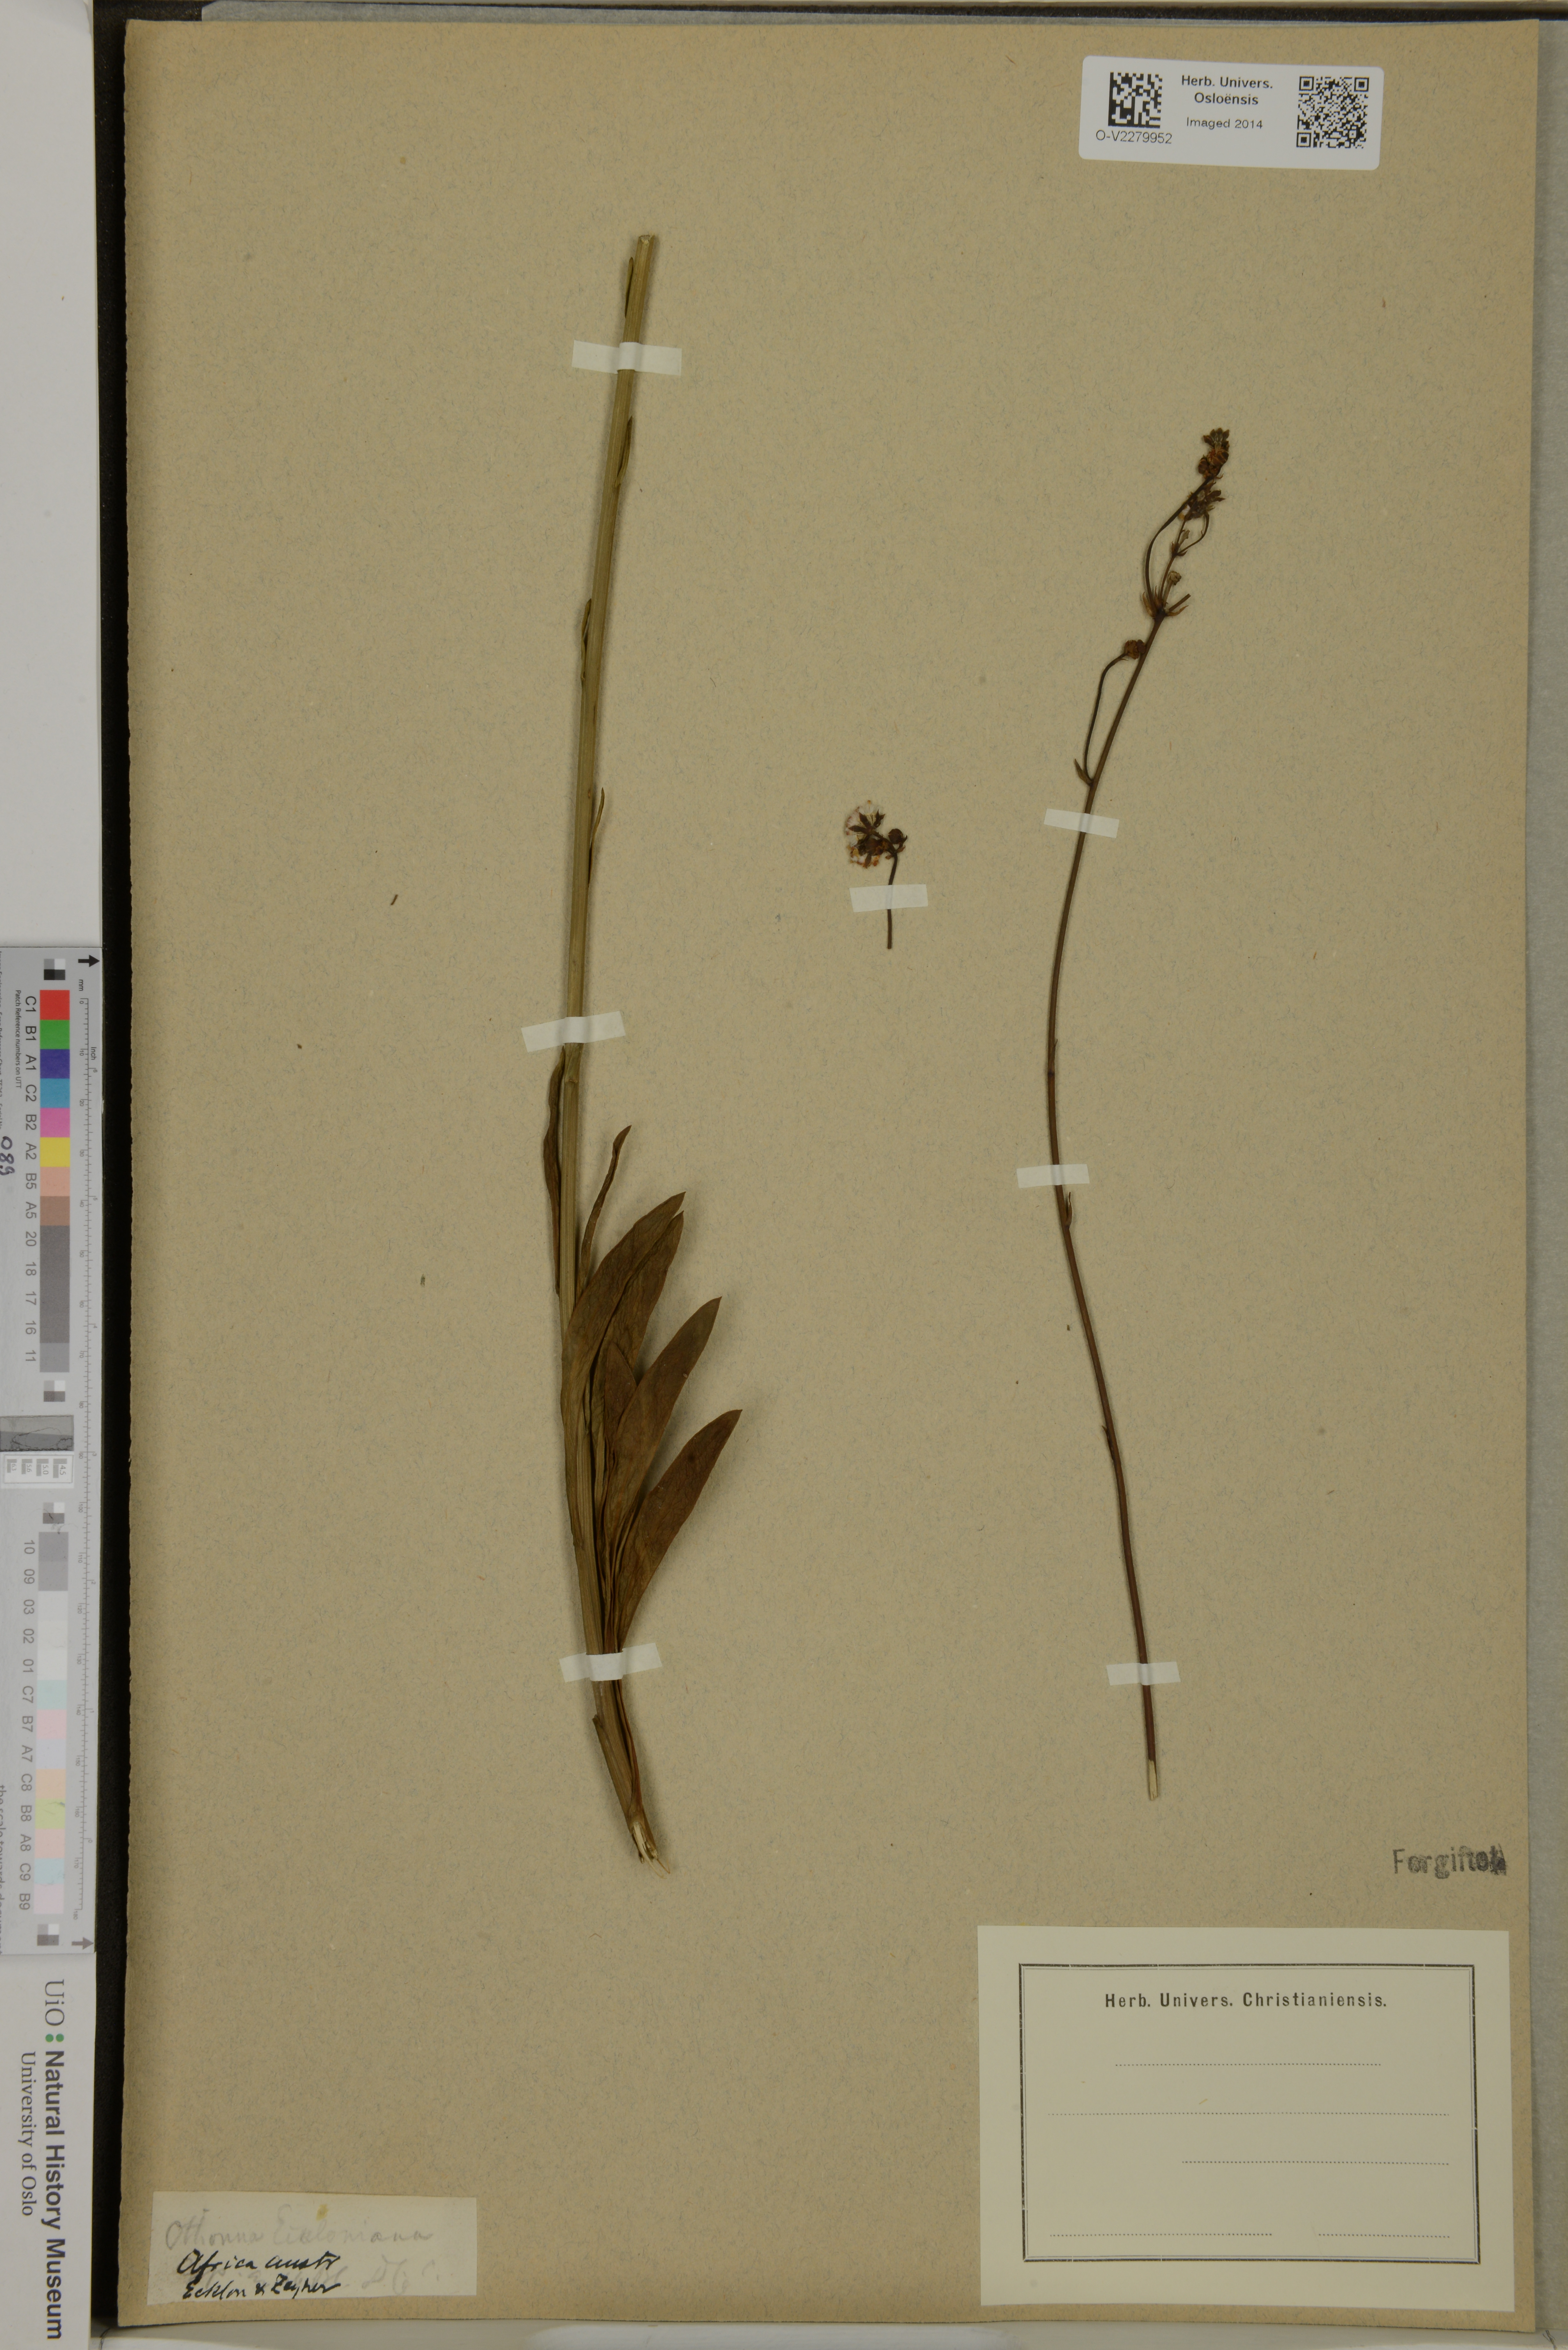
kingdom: Plantae
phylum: Tracheophyta
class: Magnoliopsida
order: Asterales
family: Asteraceae
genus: Othonna
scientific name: Othonna eckloneana
